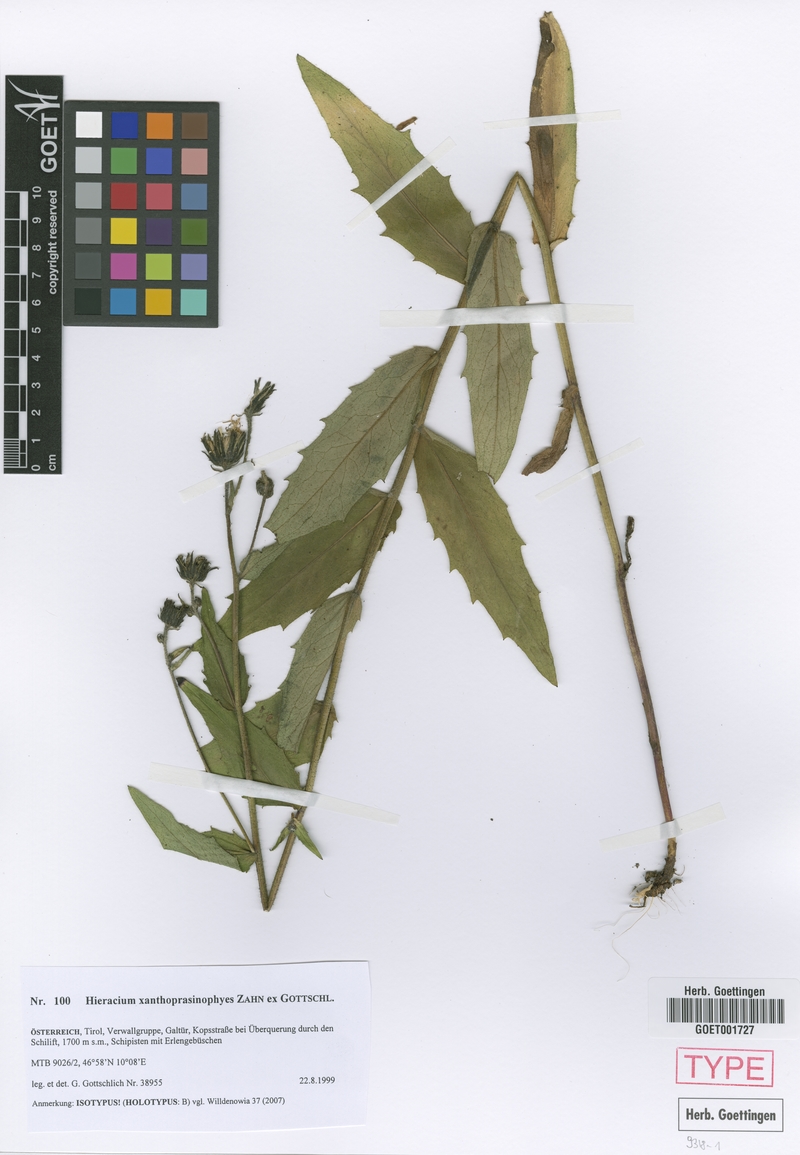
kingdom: Plantae
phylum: Tracheophyta
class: Magnoliopsida
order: Asterales
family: Asteraceae
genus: Hieracium
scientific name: Hieracium xanthoprasinophyes
